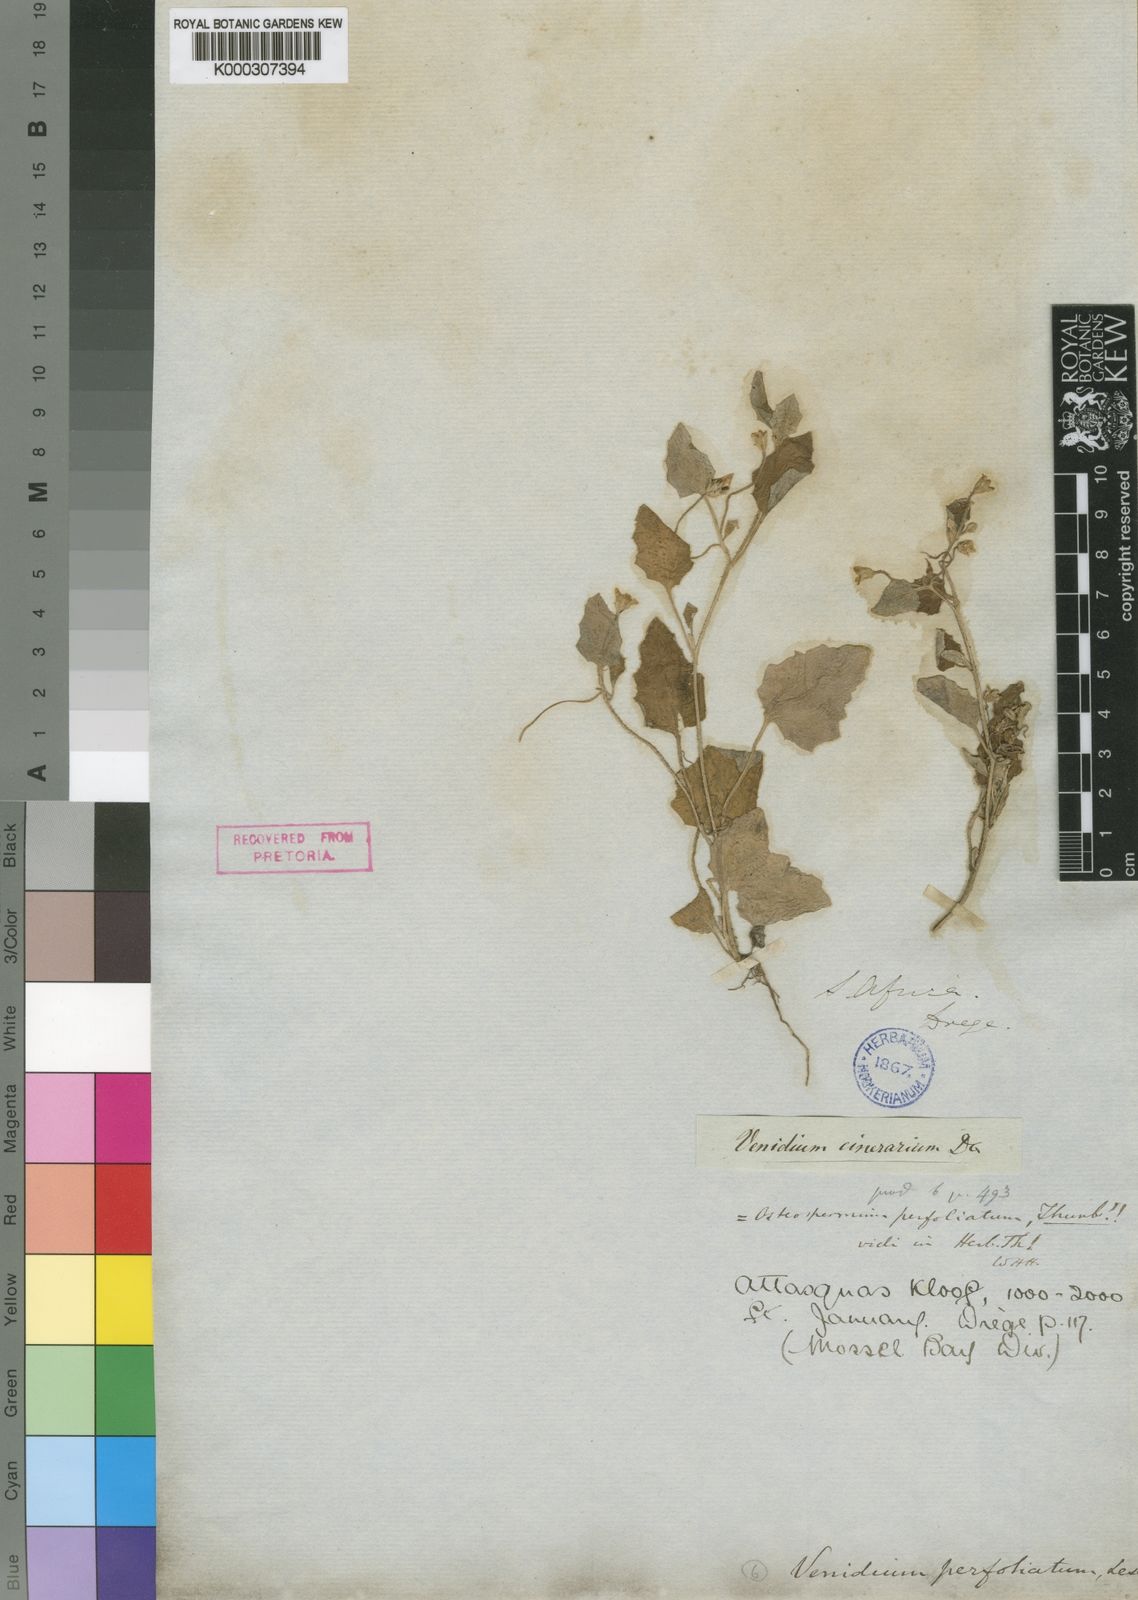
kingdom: Plantae
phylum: Tracheophyta
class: Magnoliopsida
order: Asterales
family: Asteraceae
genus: Arctotis
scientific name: Arctotis perfoliata
